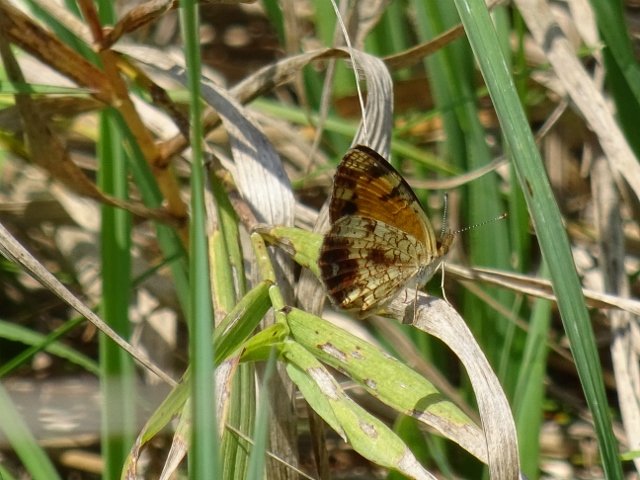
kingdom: Animalia
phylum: Arthropoda
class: Insecta
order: Lepidoptera
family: Nymphalidae
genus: Phyciodes
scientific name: Phyciodes tharos
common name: Northern Crescent
